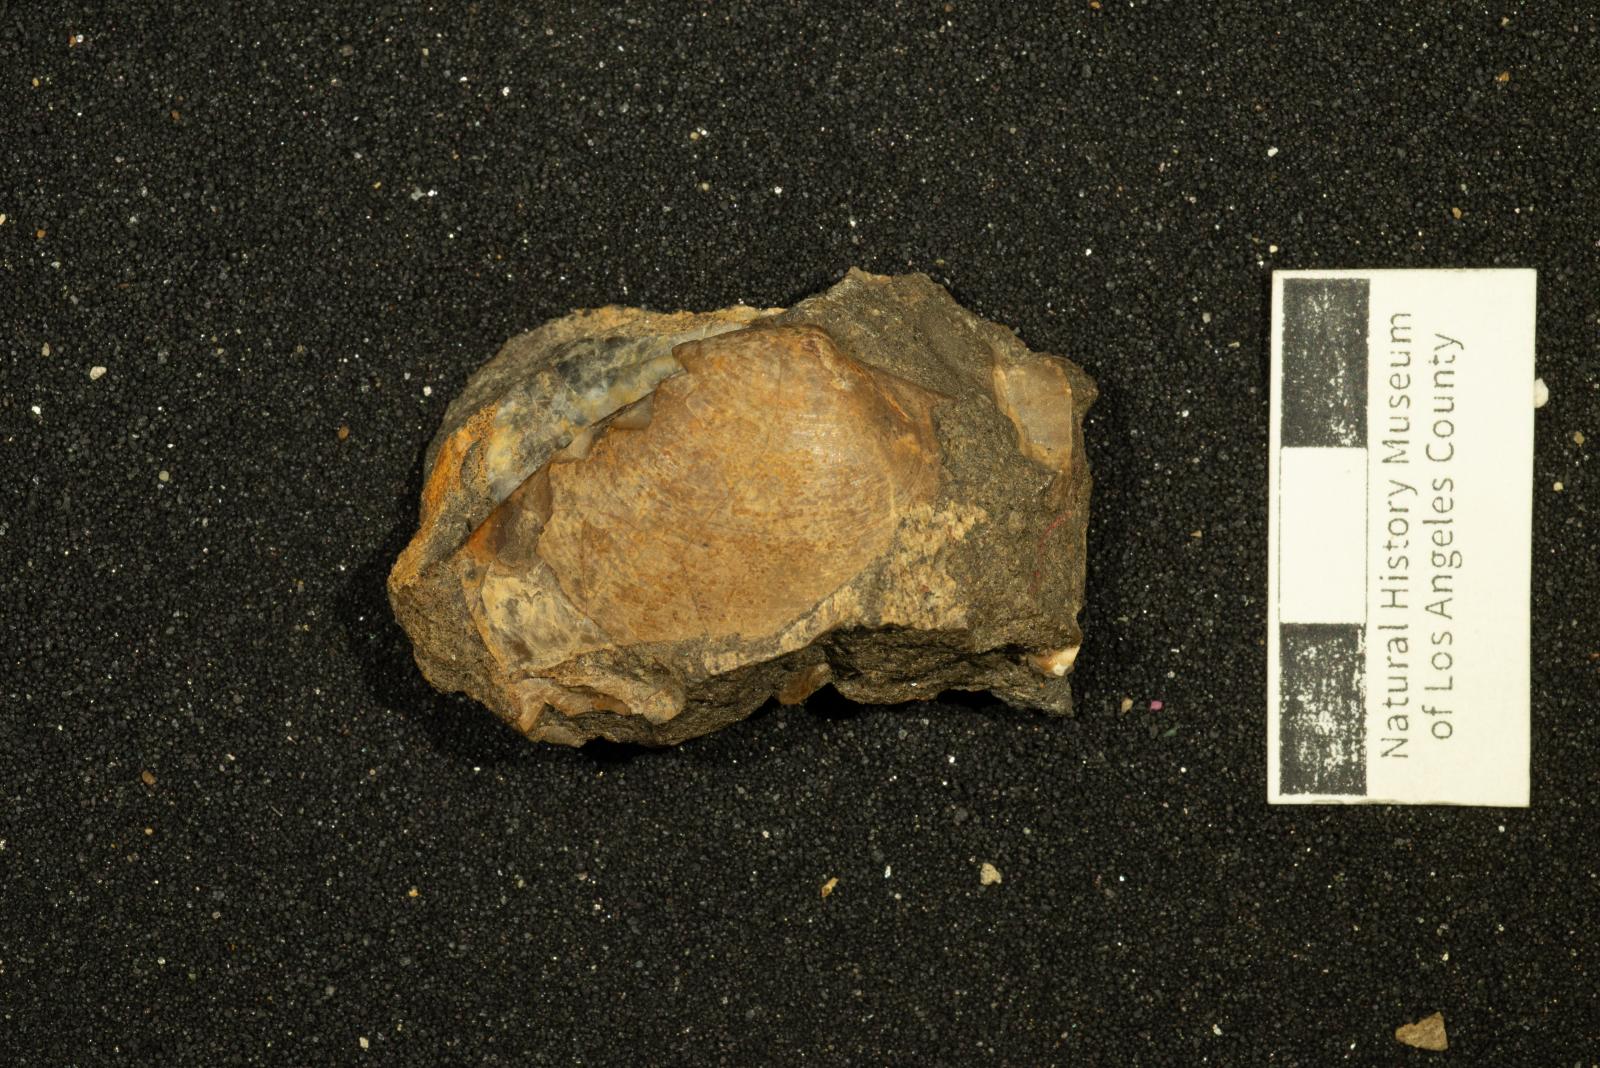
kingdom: Animalia
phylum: Mollusca
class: Bivalvia
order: Venerida
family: Mactridae
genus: Willimactra
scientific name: Willimactra putida
